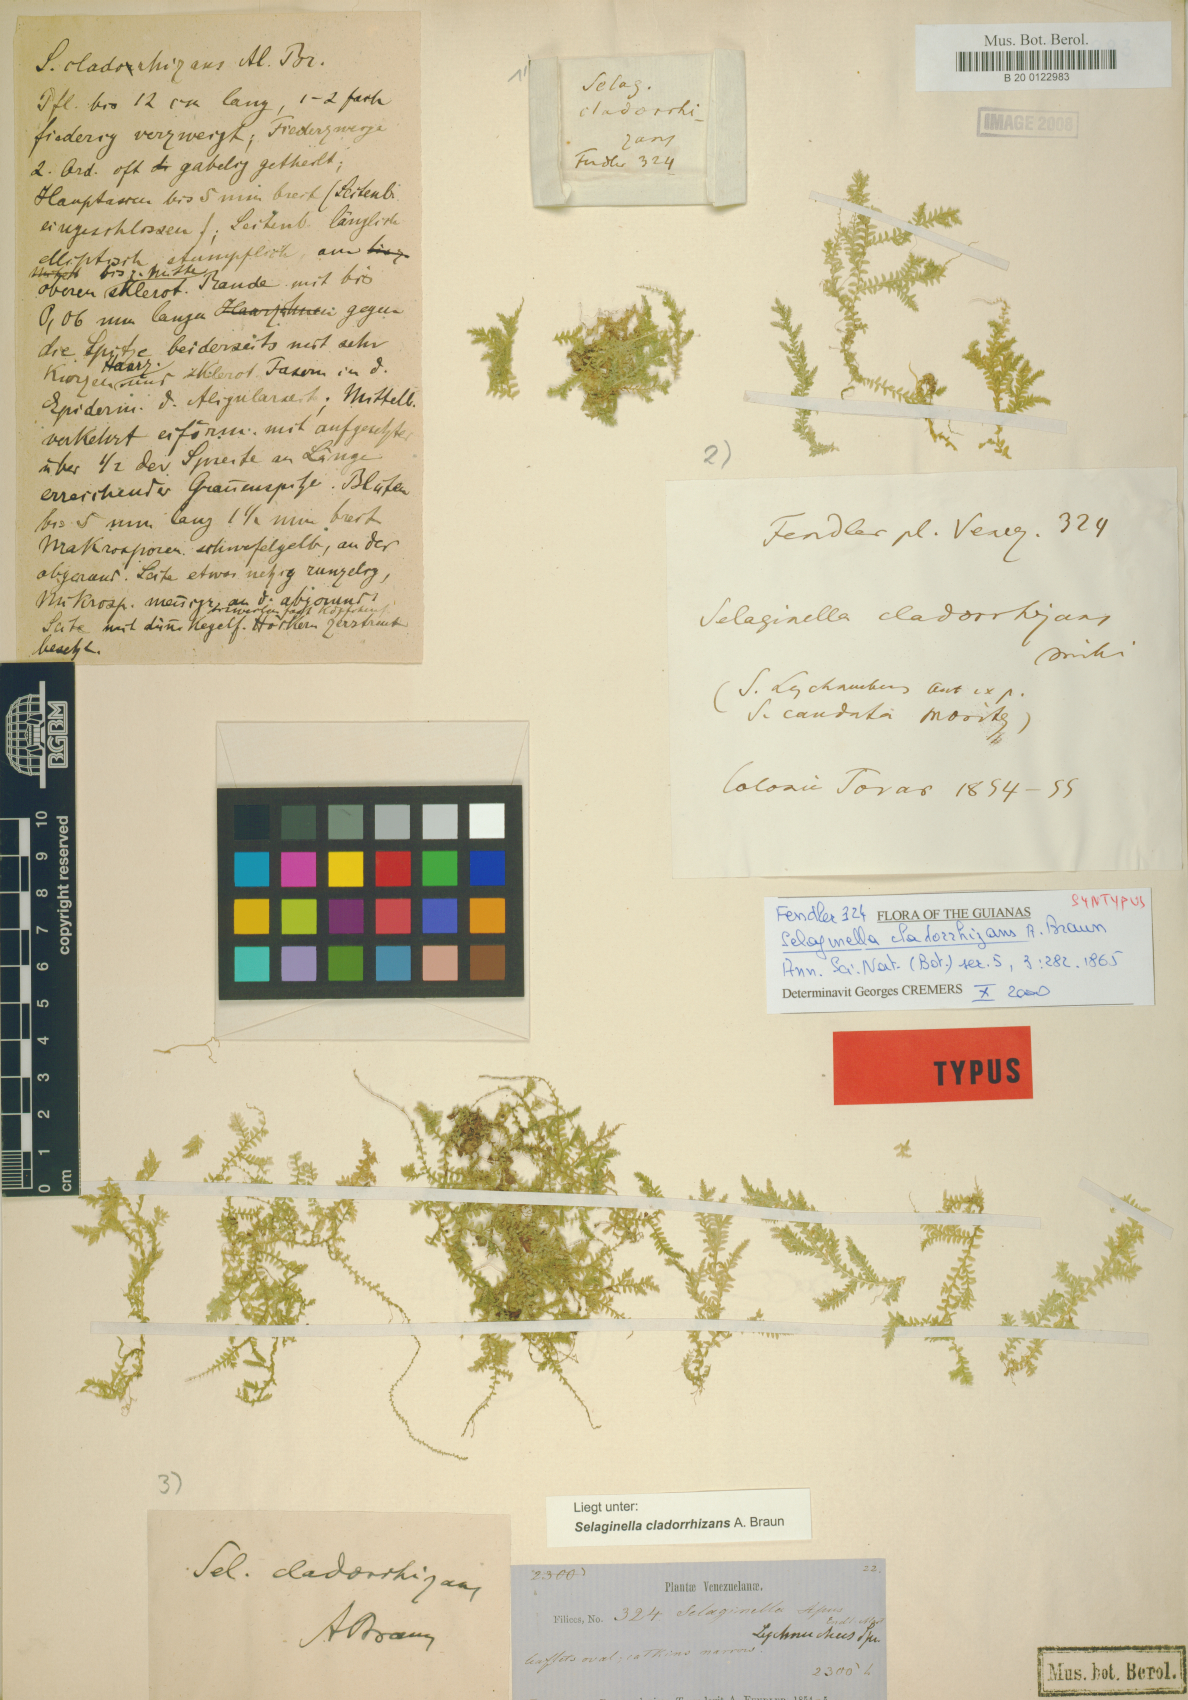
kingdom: Plantae
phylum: Tracheophyta
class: Lycopodiopsida
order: Selaginellales
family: Selaginellaceae
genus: Selaginella
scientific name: Selaginella tenella
